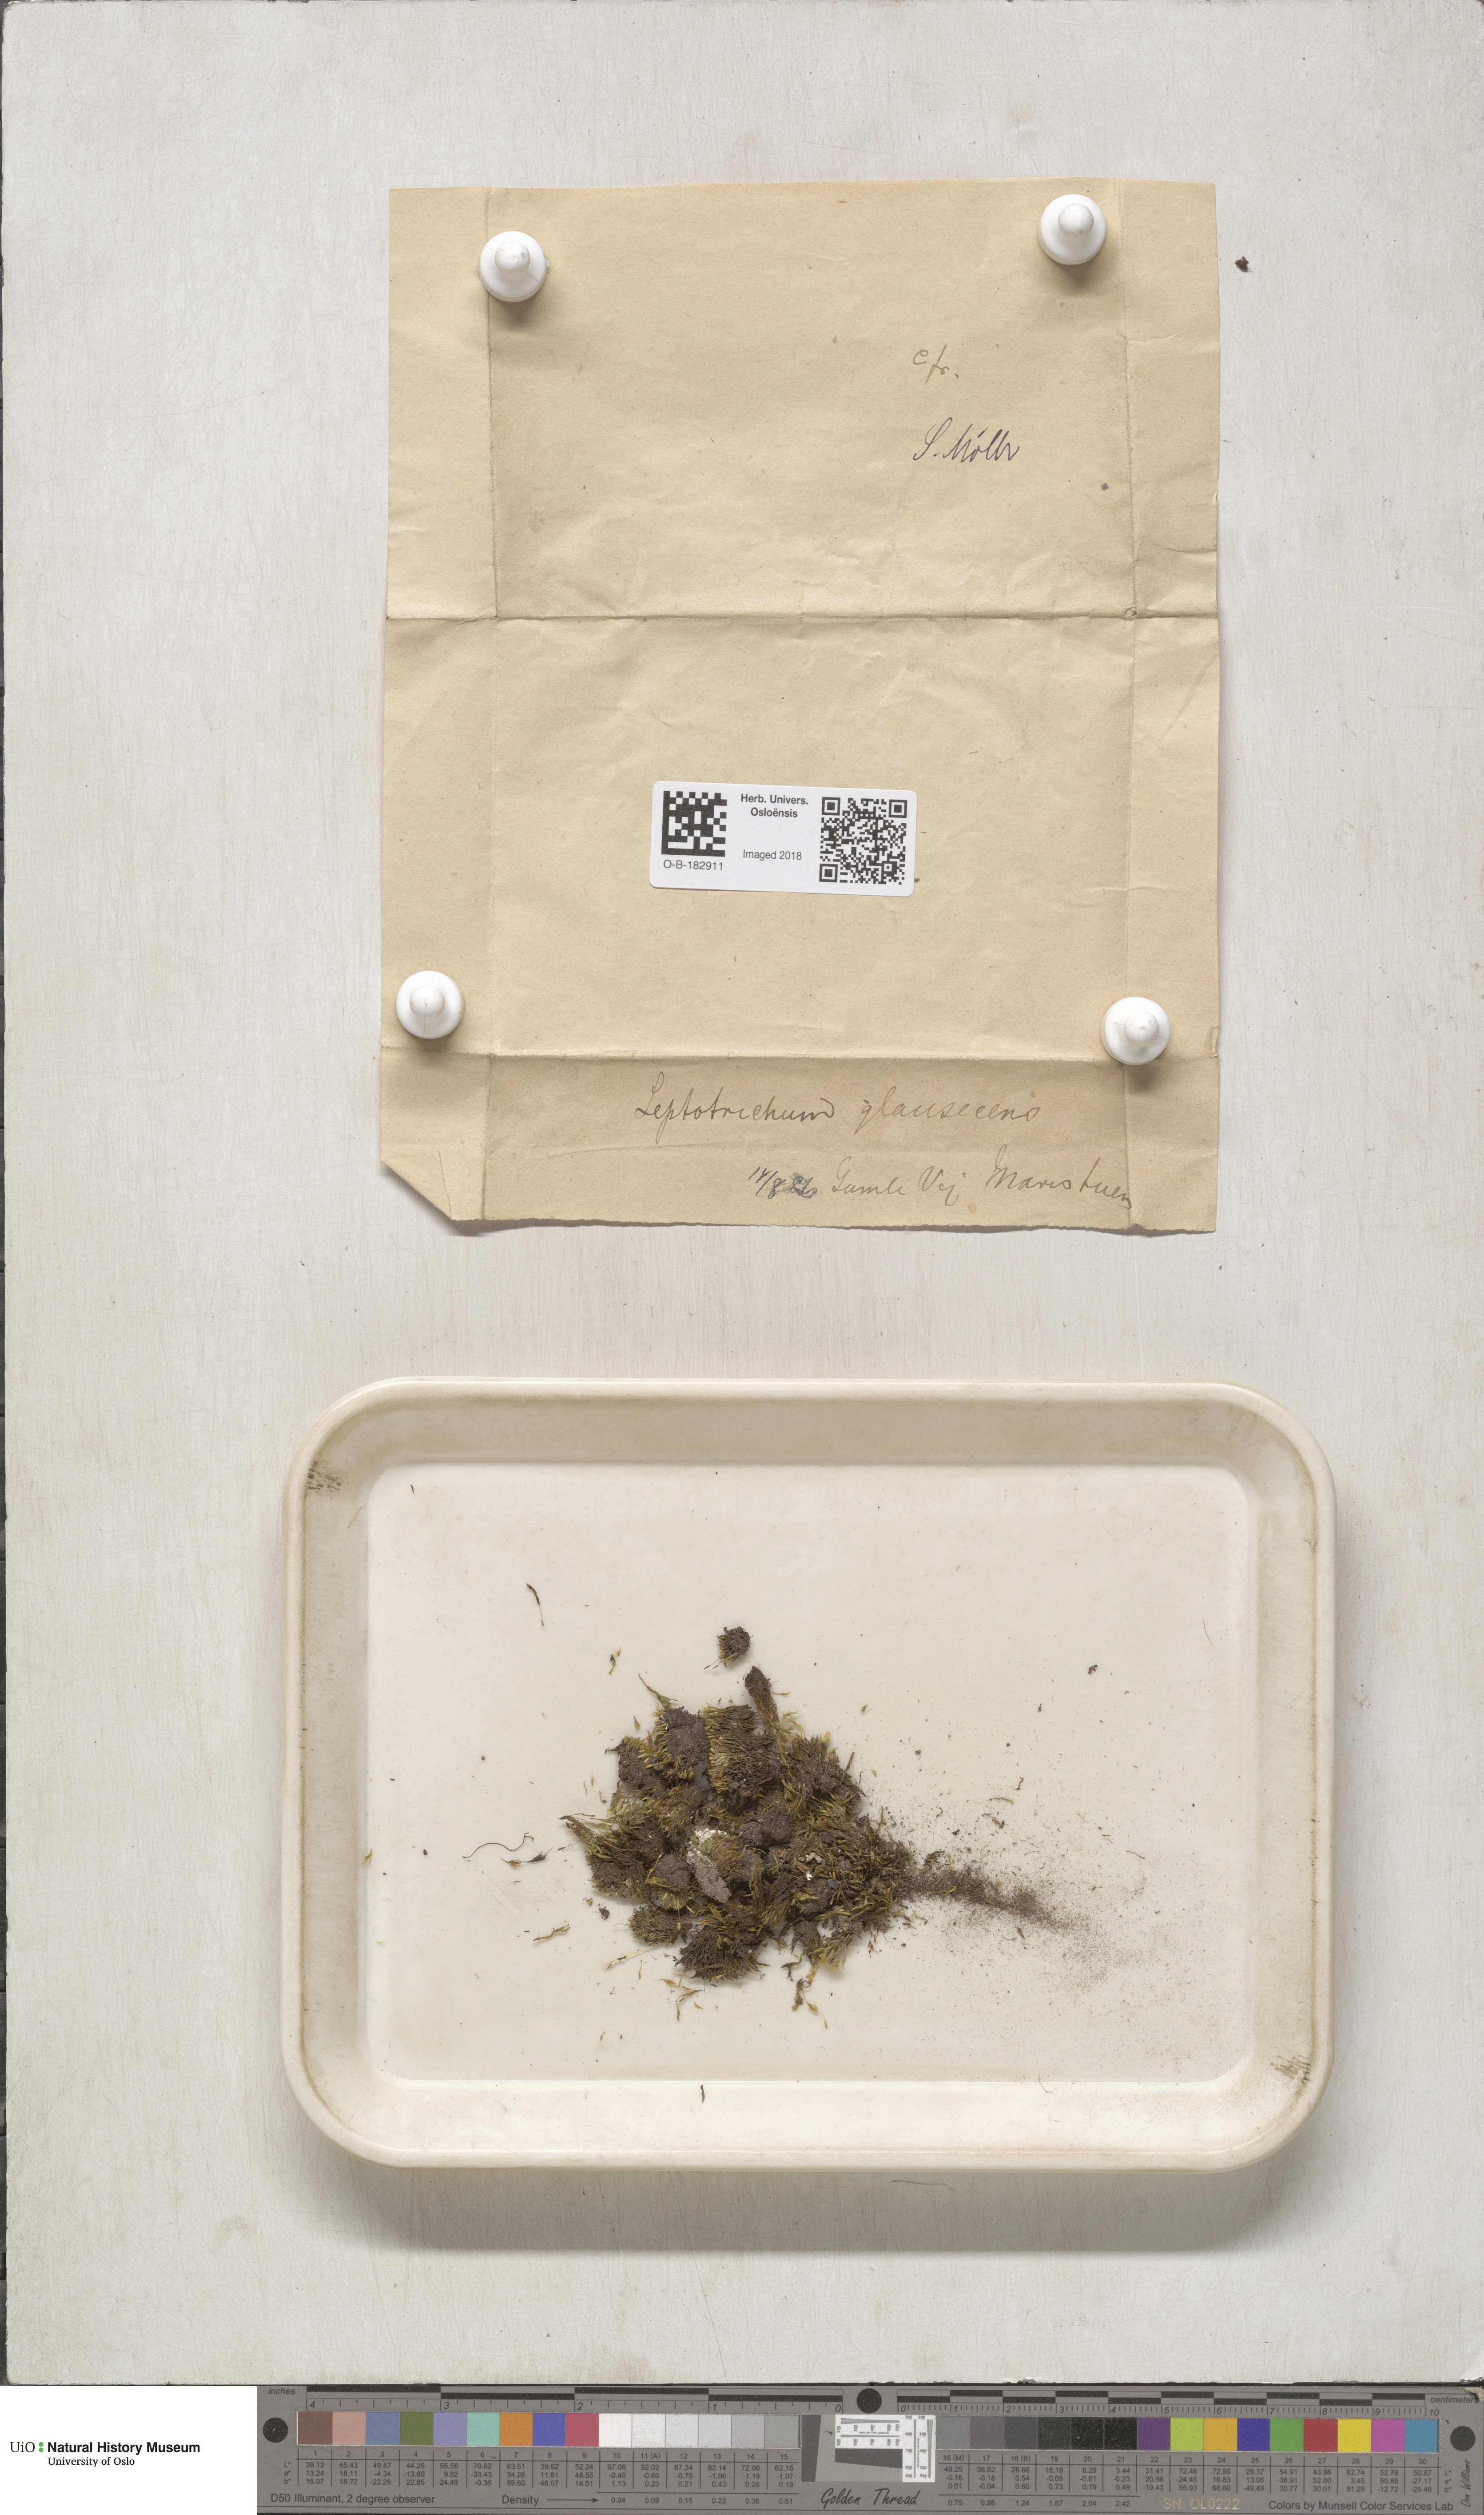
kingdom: Plantae
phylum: Bryophyta
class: Bryopsida
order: Grimmiales
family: Saelaniaceae
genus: Saelania
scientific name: Saelania glaucescens
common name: Blue dew-moss
